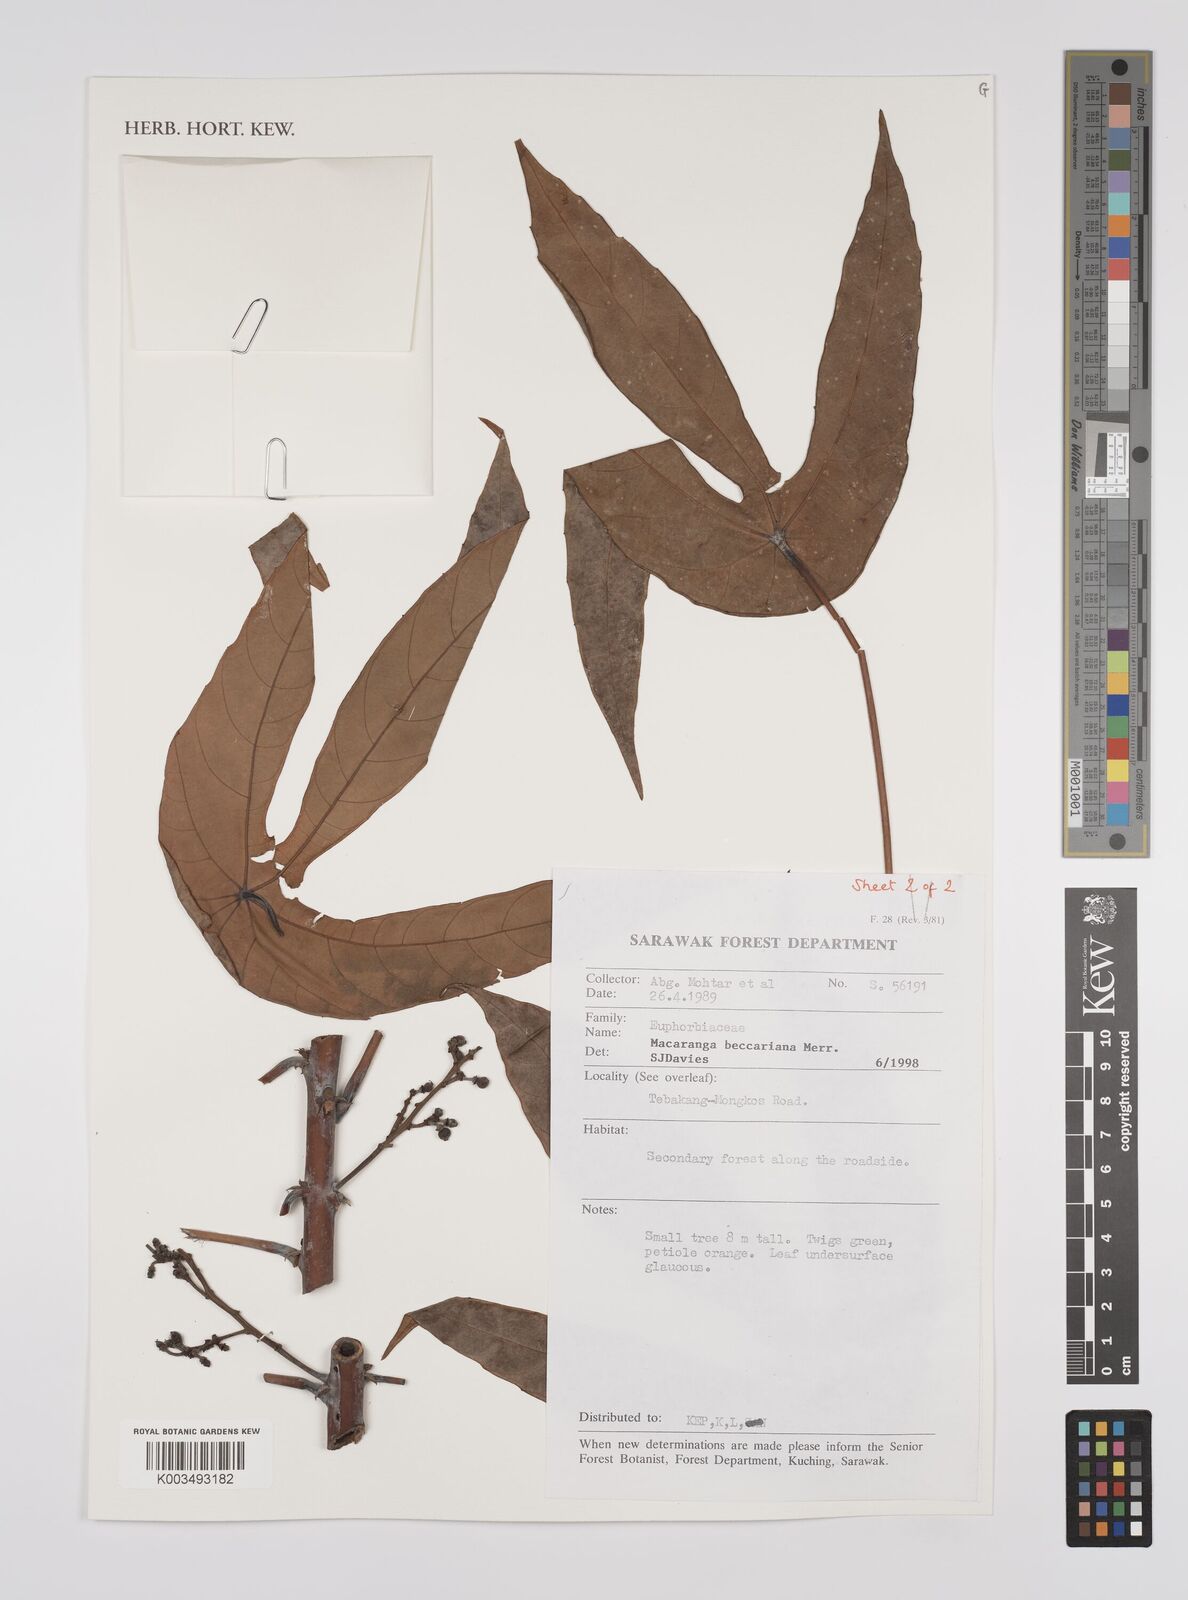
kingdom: Plantae
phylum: Tracheophyta
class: Magnoliopsida
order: Malpighiales
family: Euphorbiaceae
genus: Macaranga
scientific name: Macaranga beccariana
